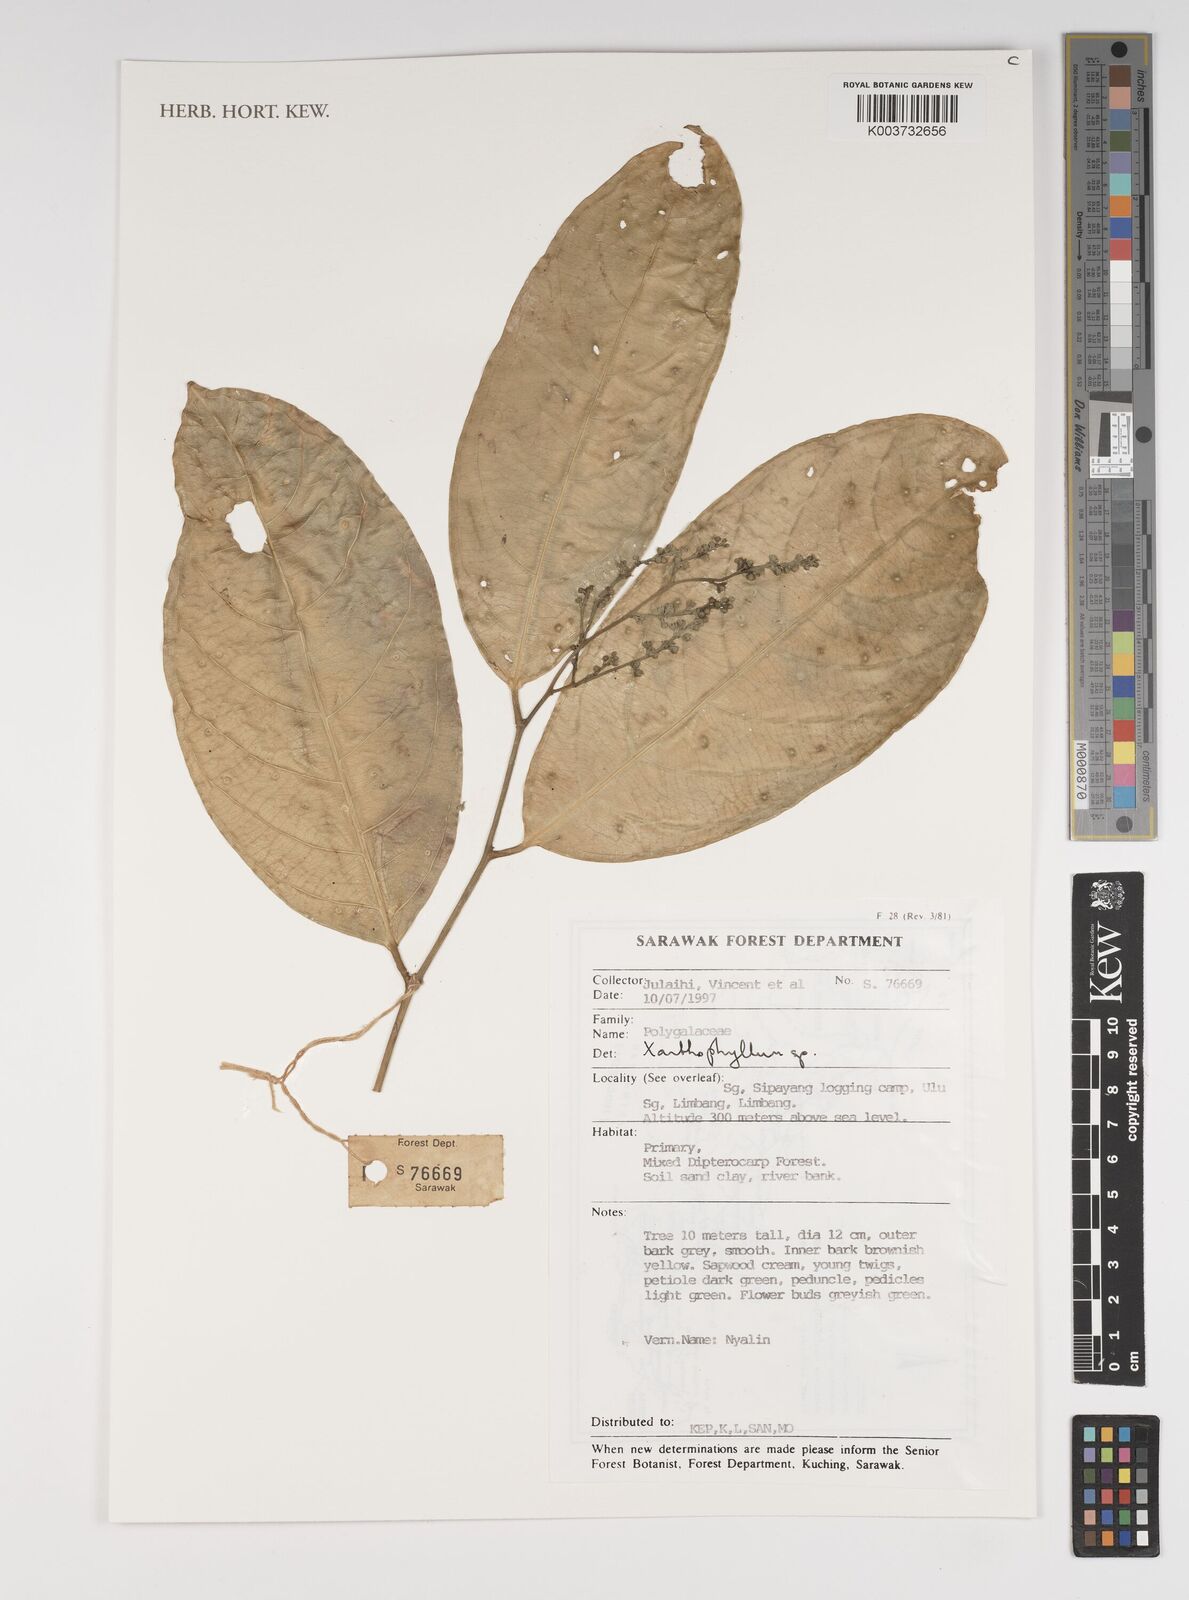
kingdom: Plantae
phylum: Tracheophyta
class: Magnoliopsida
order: Fabales
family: Polygalaceae
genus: Xanthophyllum
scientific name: Xanthophyllum
